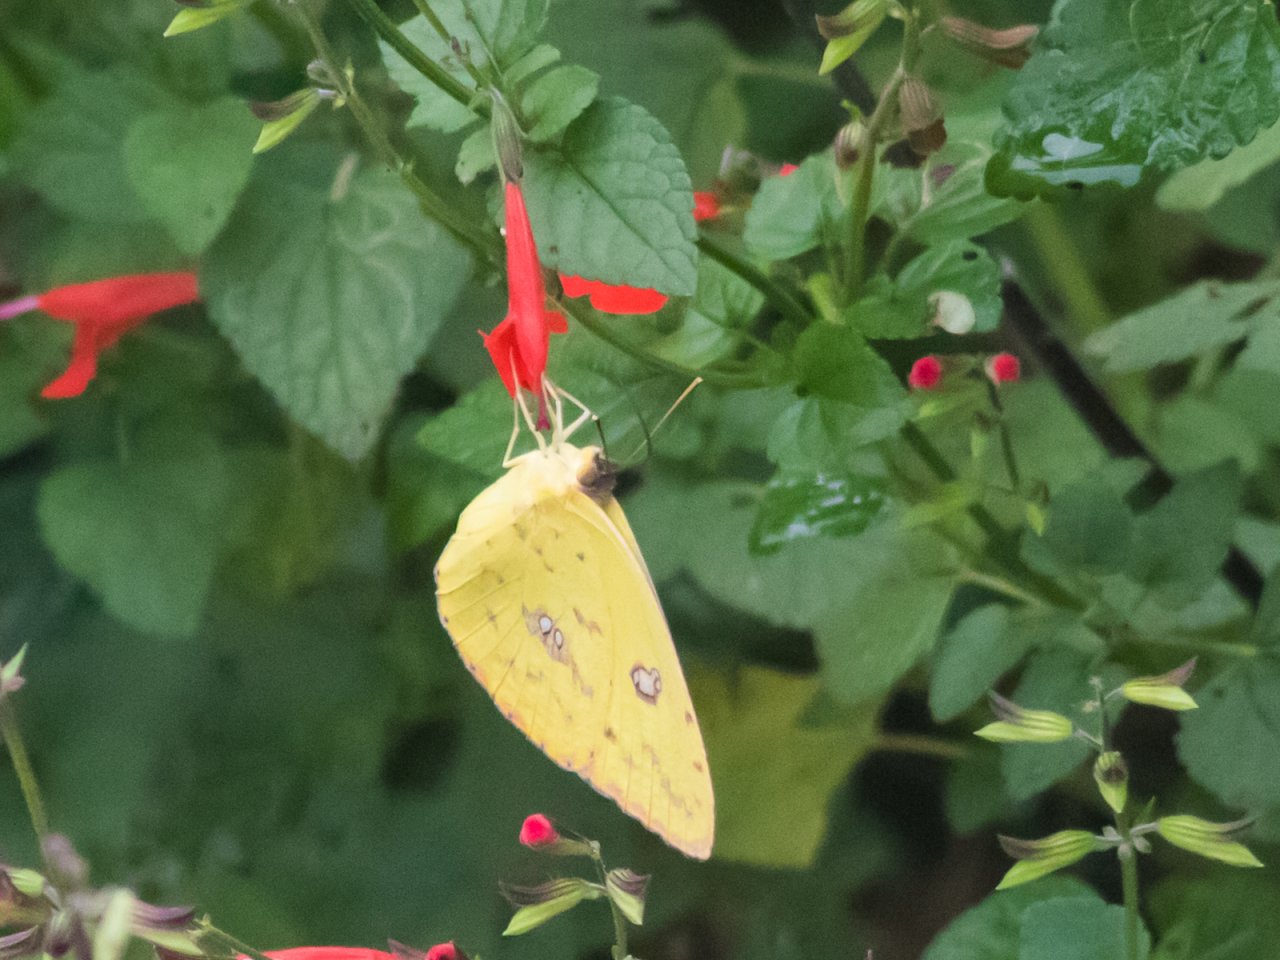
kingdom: Animalia
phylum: Arthropoda
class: Insecta
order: Lepidoptera
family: Pieridae
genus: Phoebis
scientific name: Phoebis sennae
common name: Cloudless Sulphur
